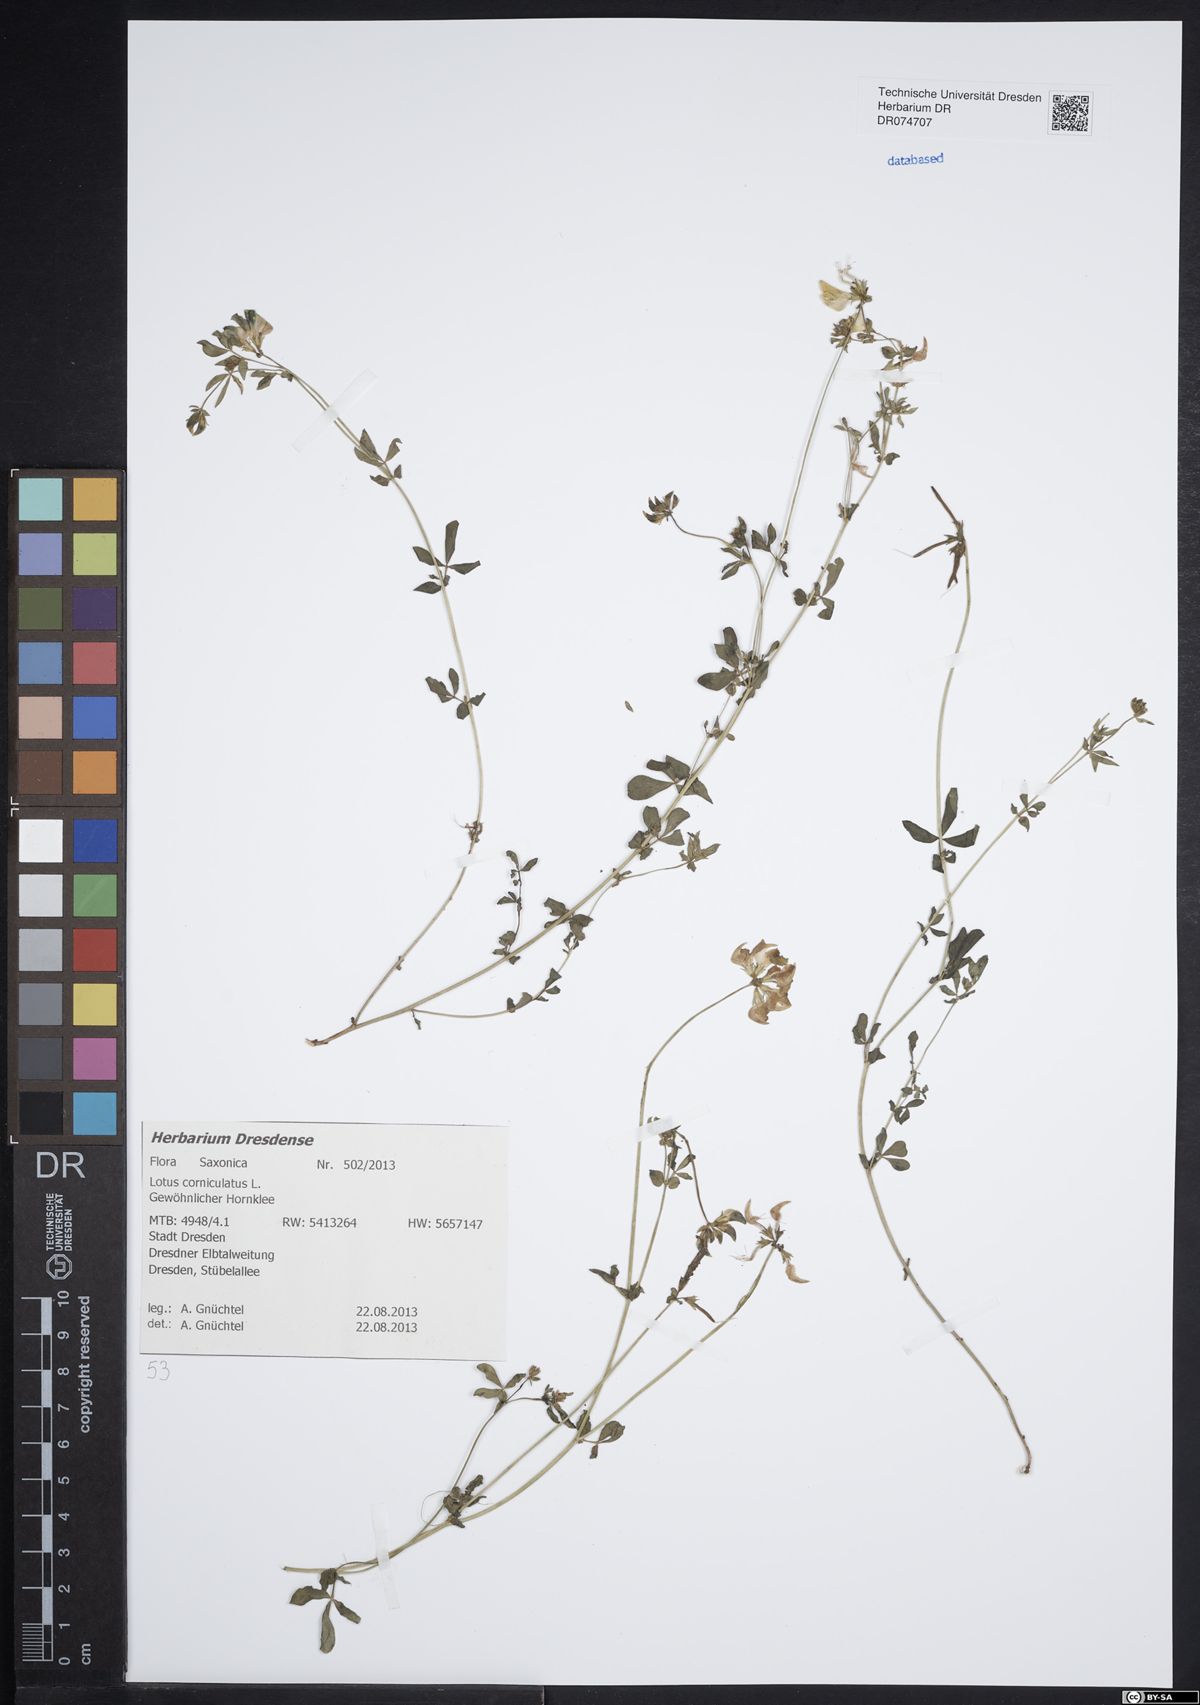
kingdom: Plantae
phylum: Tracheophyta
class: Magnoliopsida
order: Fabales
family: Fabaceae
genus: Lotus
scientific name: Lotus corniculatus
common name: Common bird's-foot-trefoil
